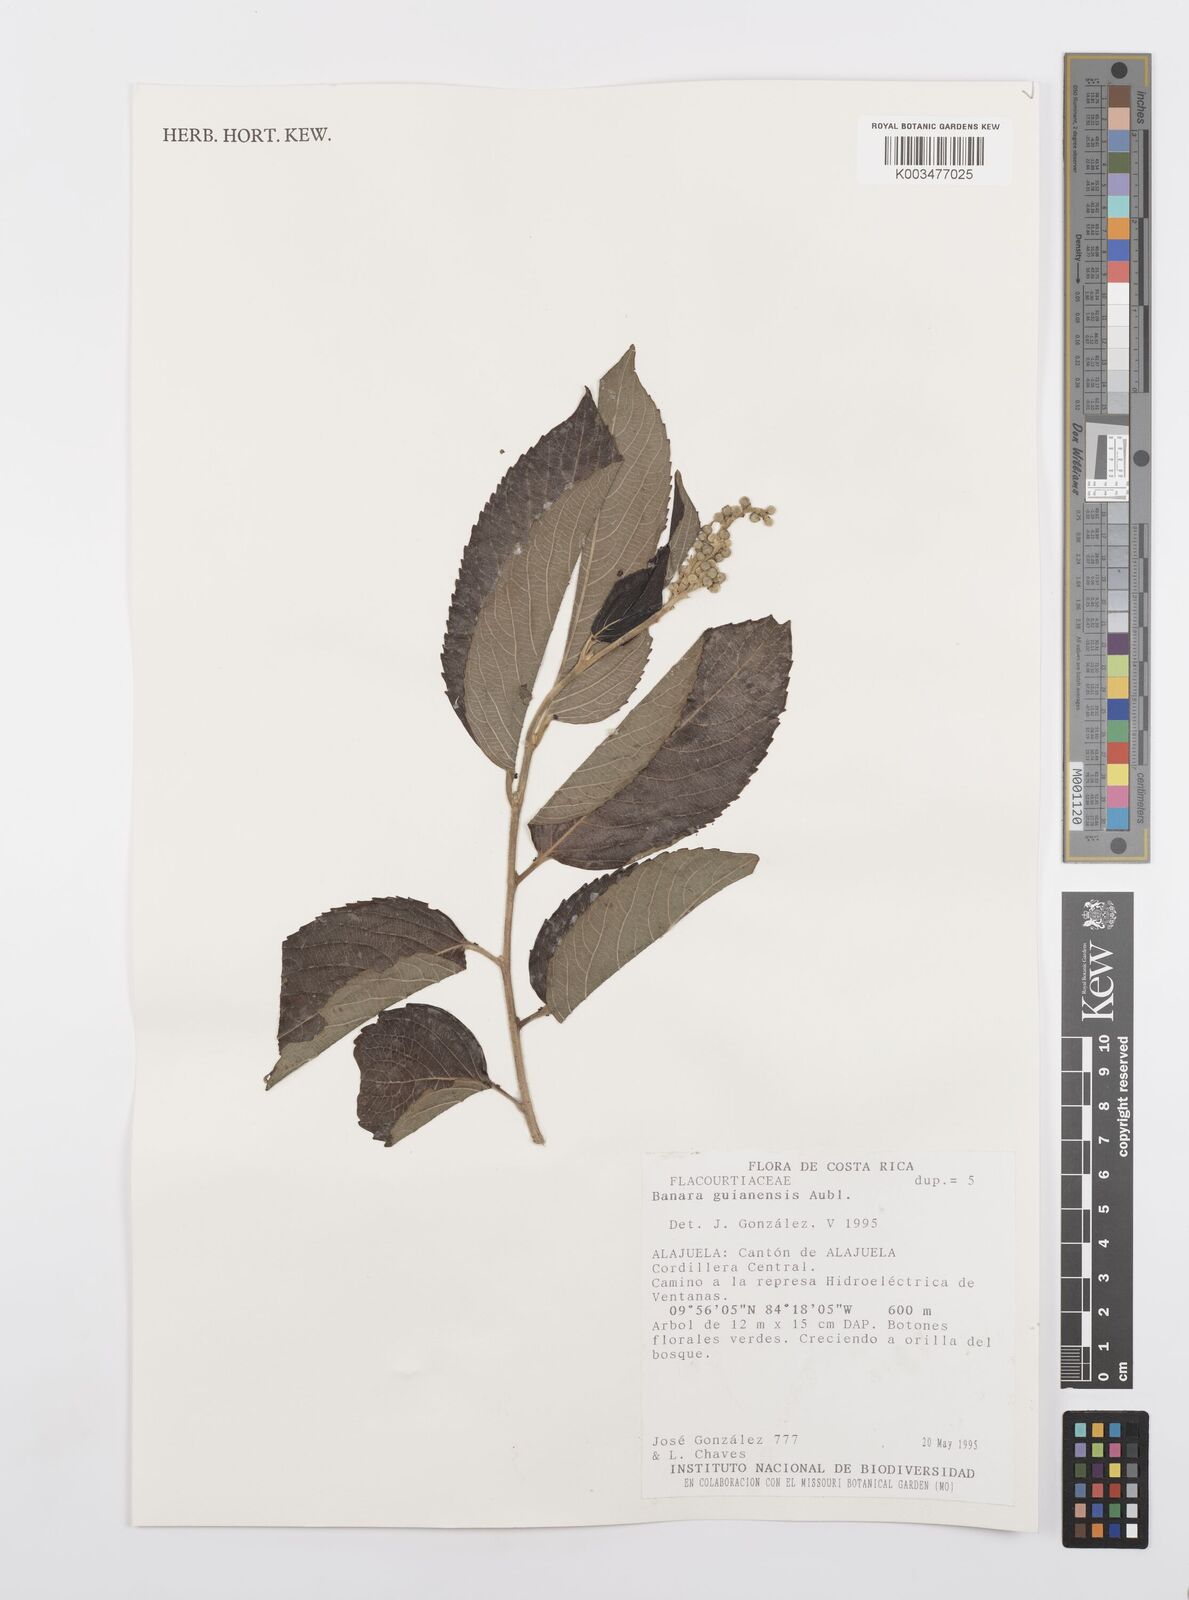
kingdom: Plantae
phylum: Tracheophyta
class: Magnoliopsida
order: Malpighiales
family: Salicaceae
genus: Banara
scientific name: Banara guianensis
